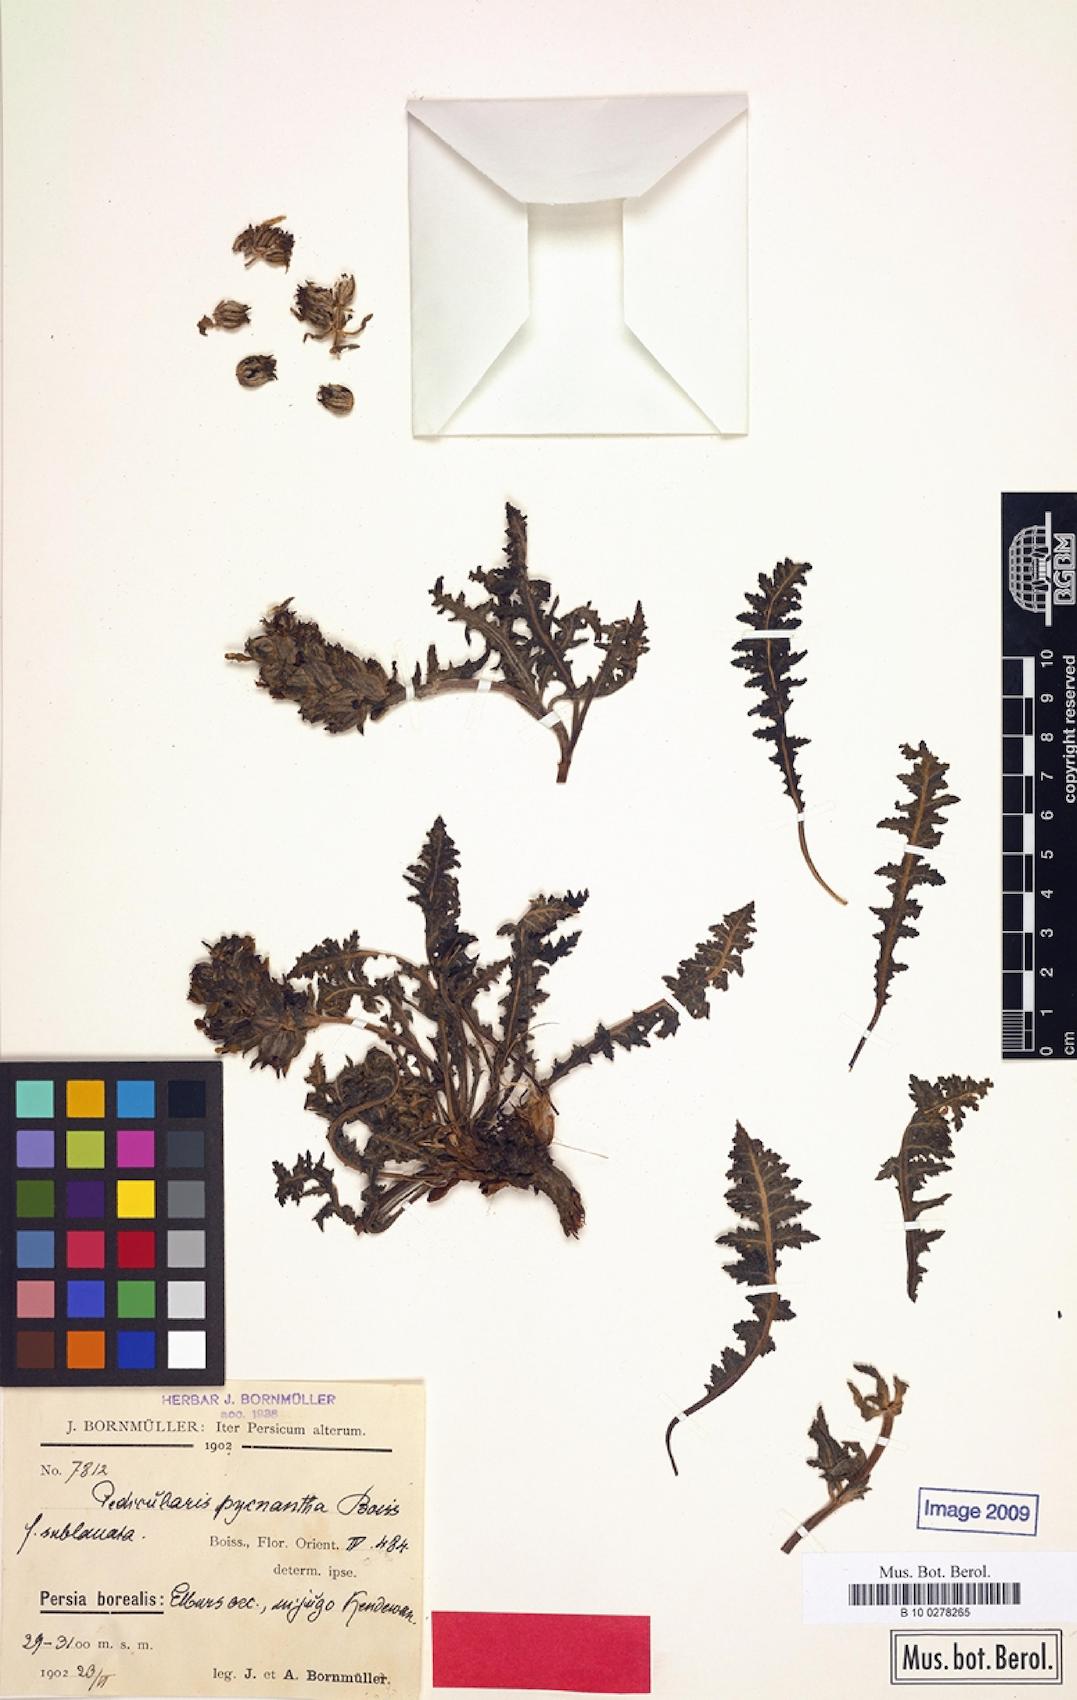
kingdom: Plantae
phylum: Tracheophyta
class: Magnoliopsida
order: Lamiales
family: Orobanchaceae
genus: Pedicularis
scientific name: Pedicularis pycnantha
